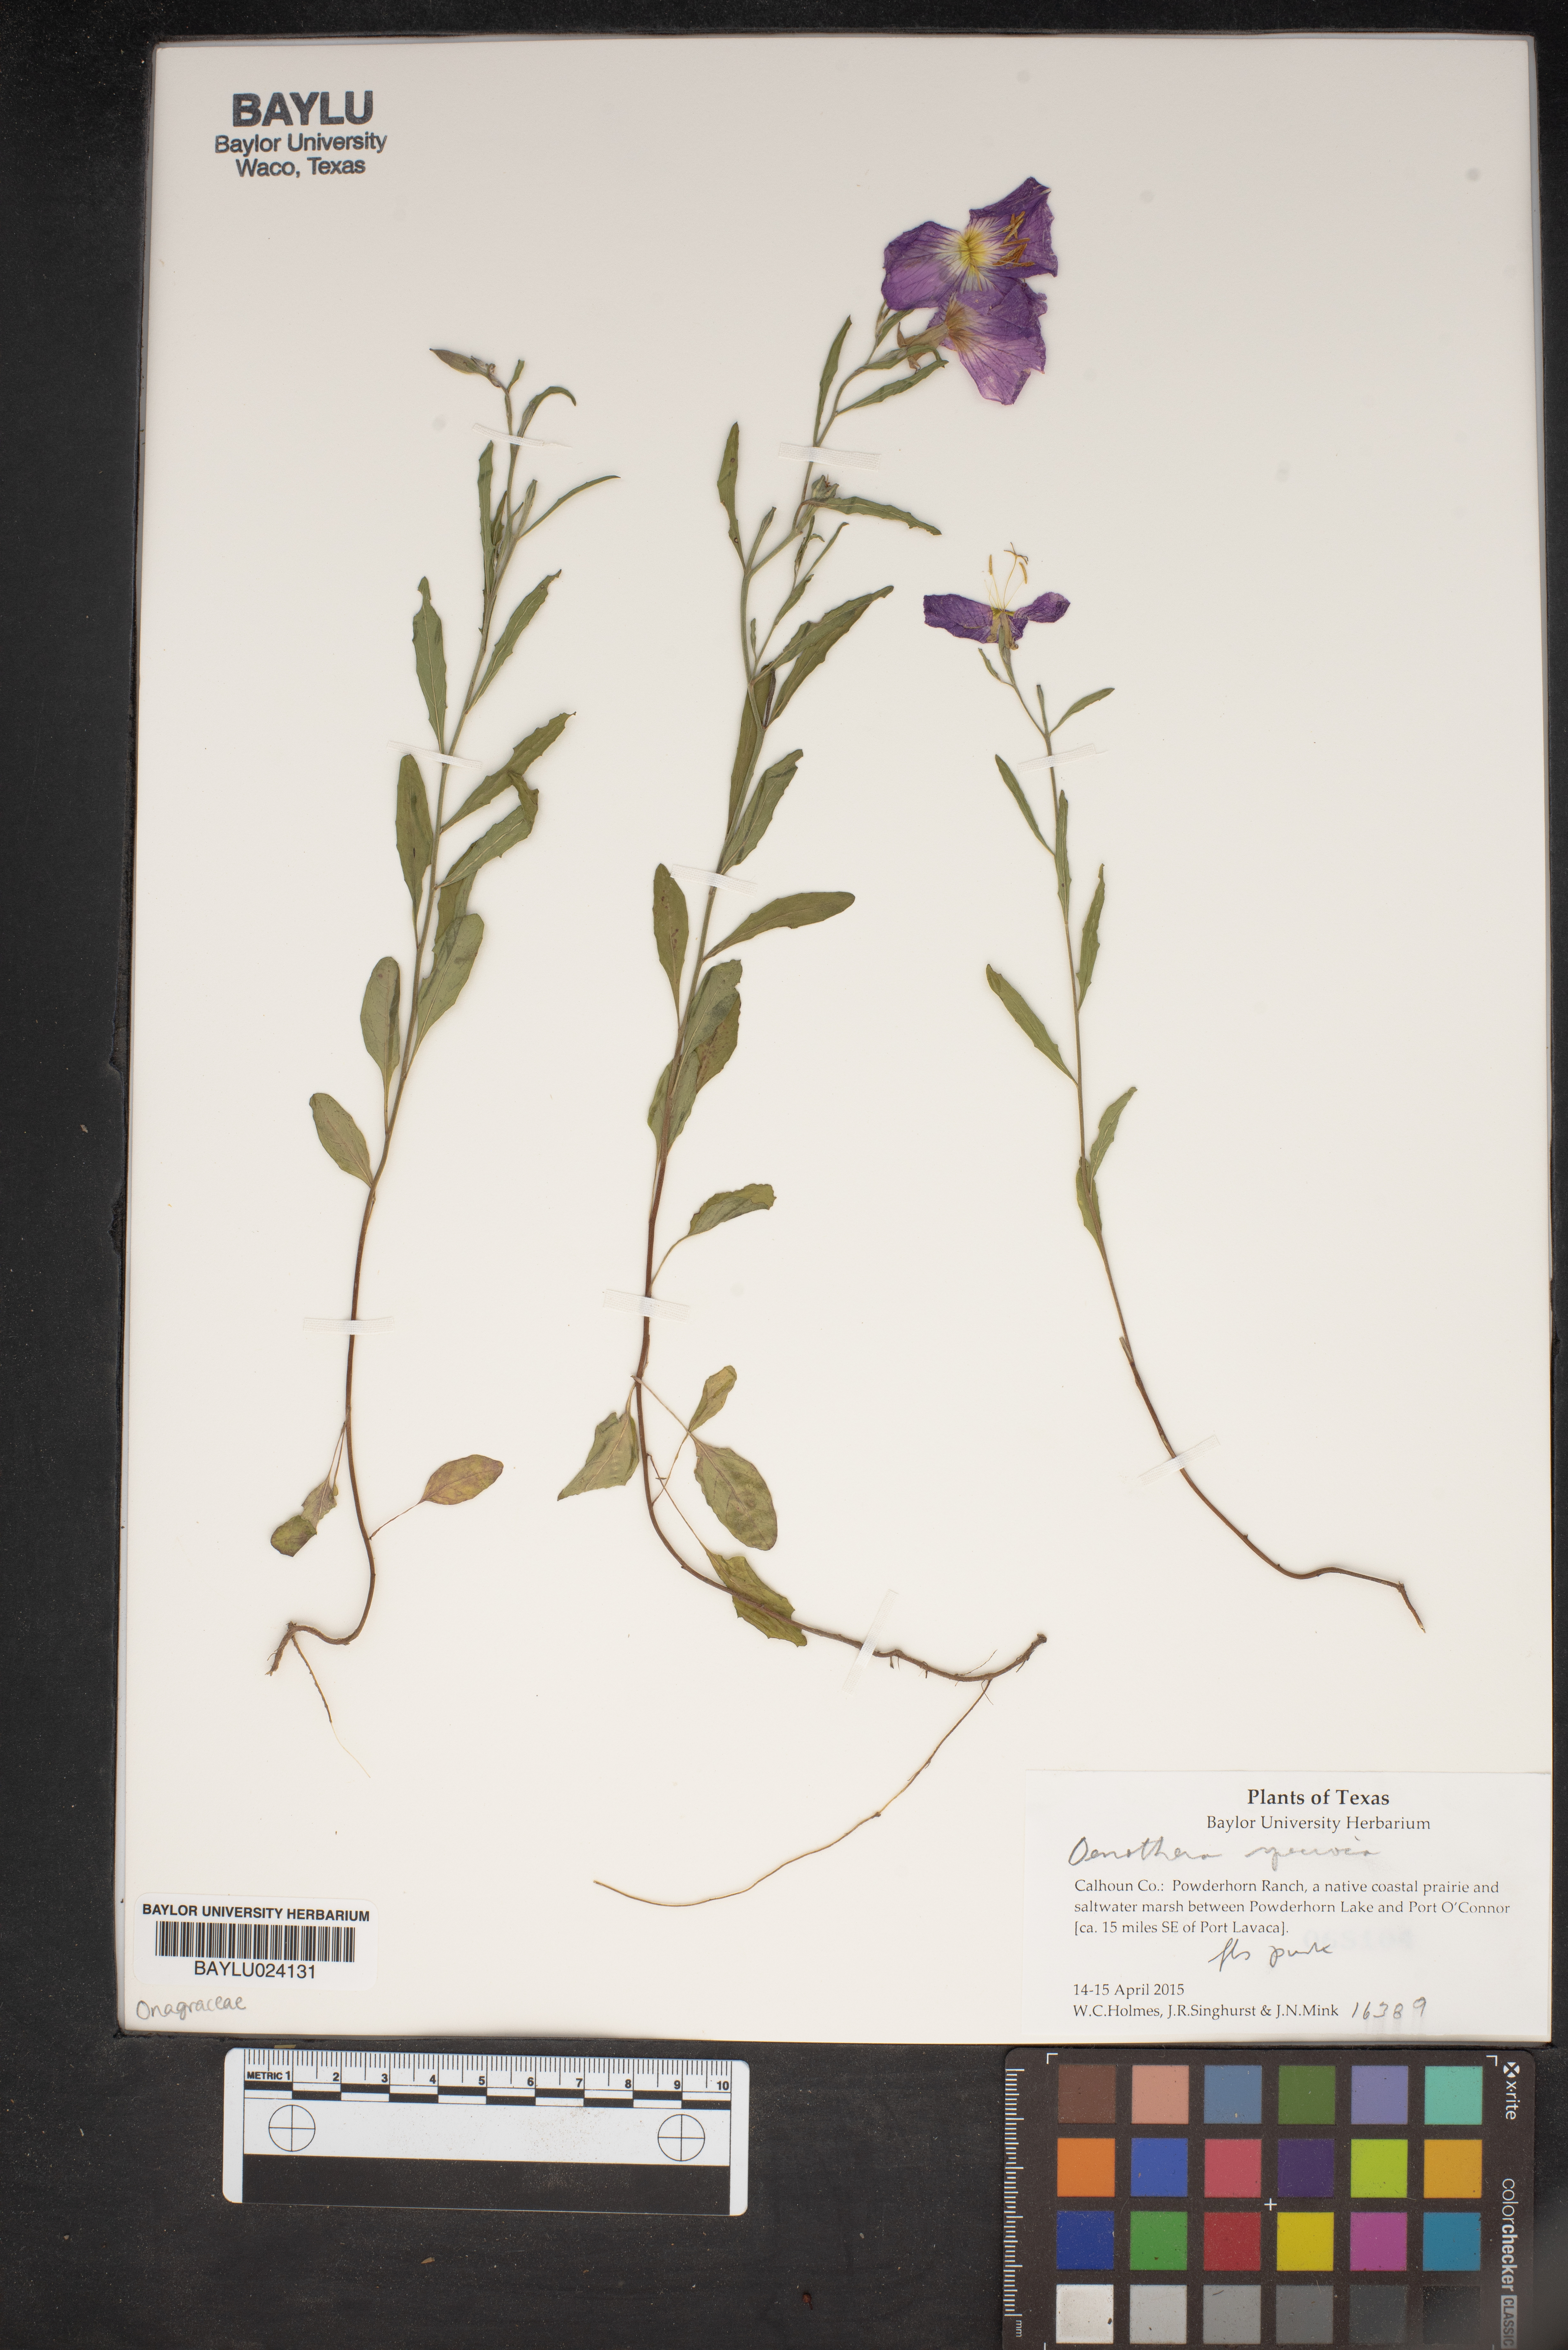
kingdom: Plantae
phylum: Tracheophyta
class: Magnoliopsida
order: Myrtales
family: Onagraceae
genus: Oenothera
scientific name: Oenothera
